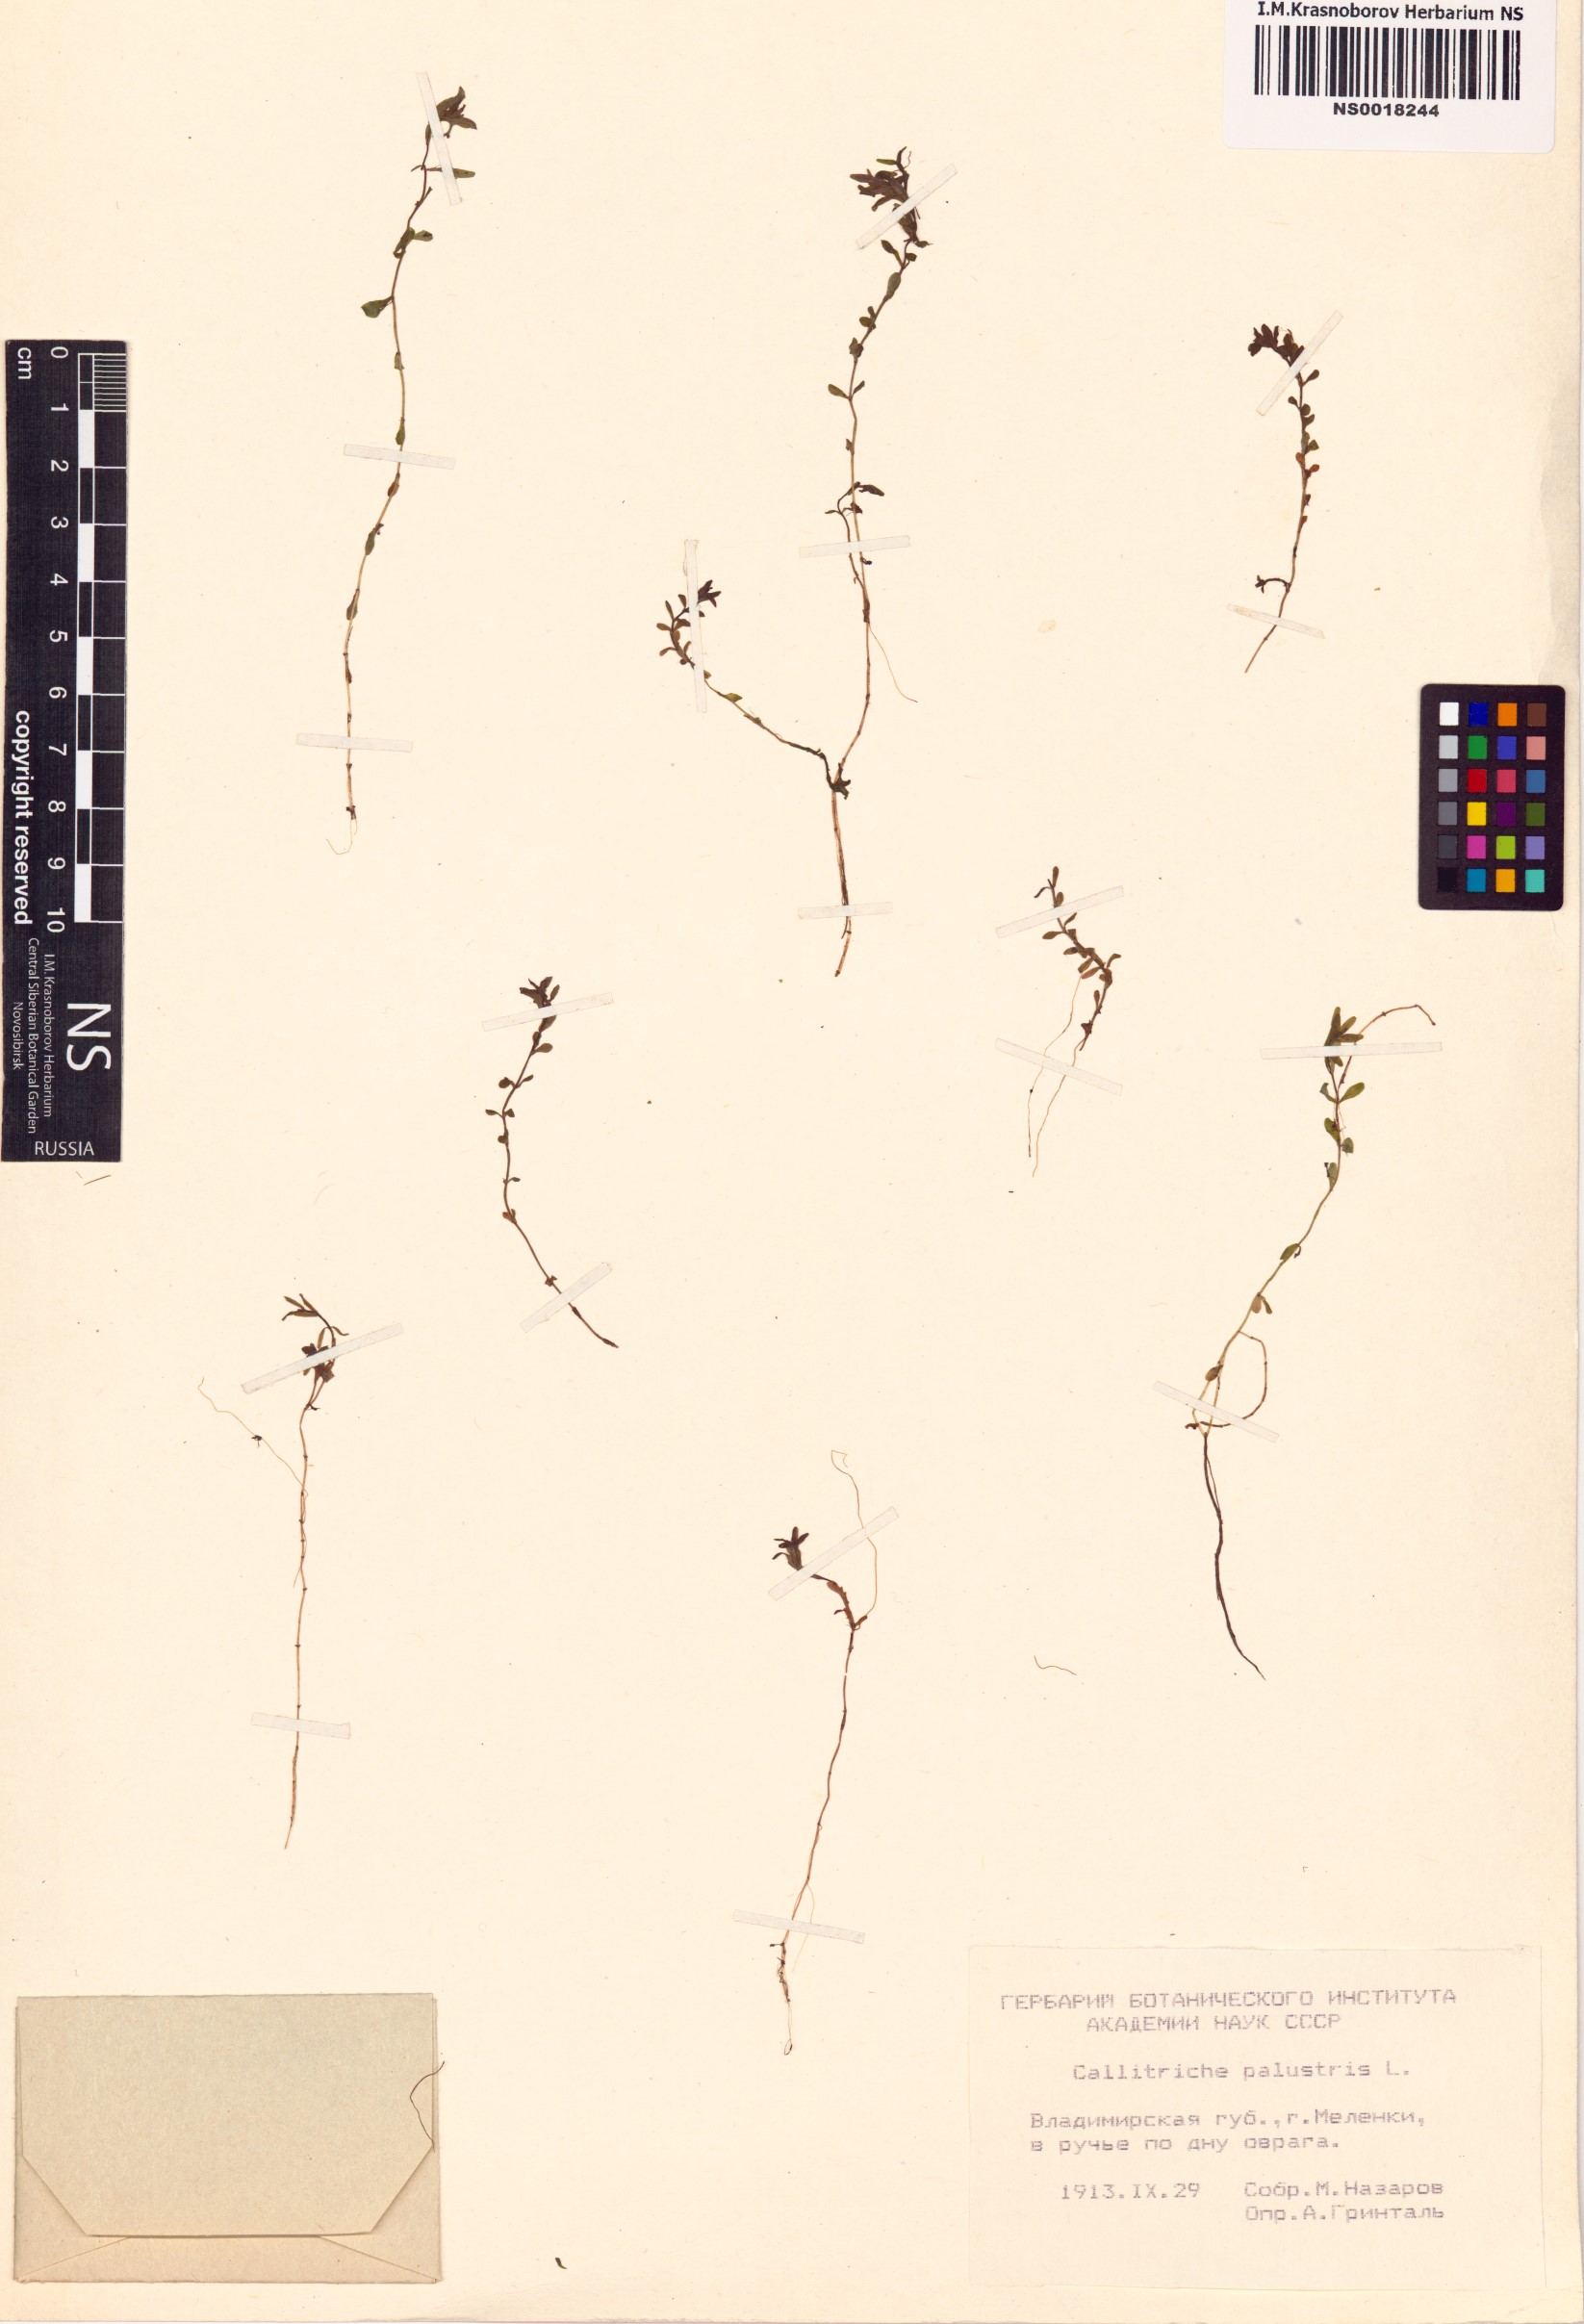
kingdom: Plantae
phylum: Tracheophyta
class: Magnoliopsida
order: Lamiales
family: Plantaginaceae
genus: Callitriche
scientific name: Callitriche palustris
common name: Spring water-starwort
